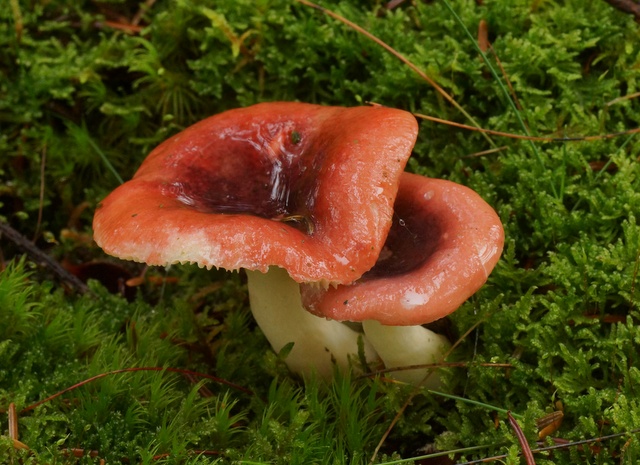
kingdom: Fungi
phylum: Basidiomycota
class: Agaricomycetes
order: Russulales
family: Russulaceae
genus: Russula
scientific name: Russula atrorubens
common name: sortrød skørhat
